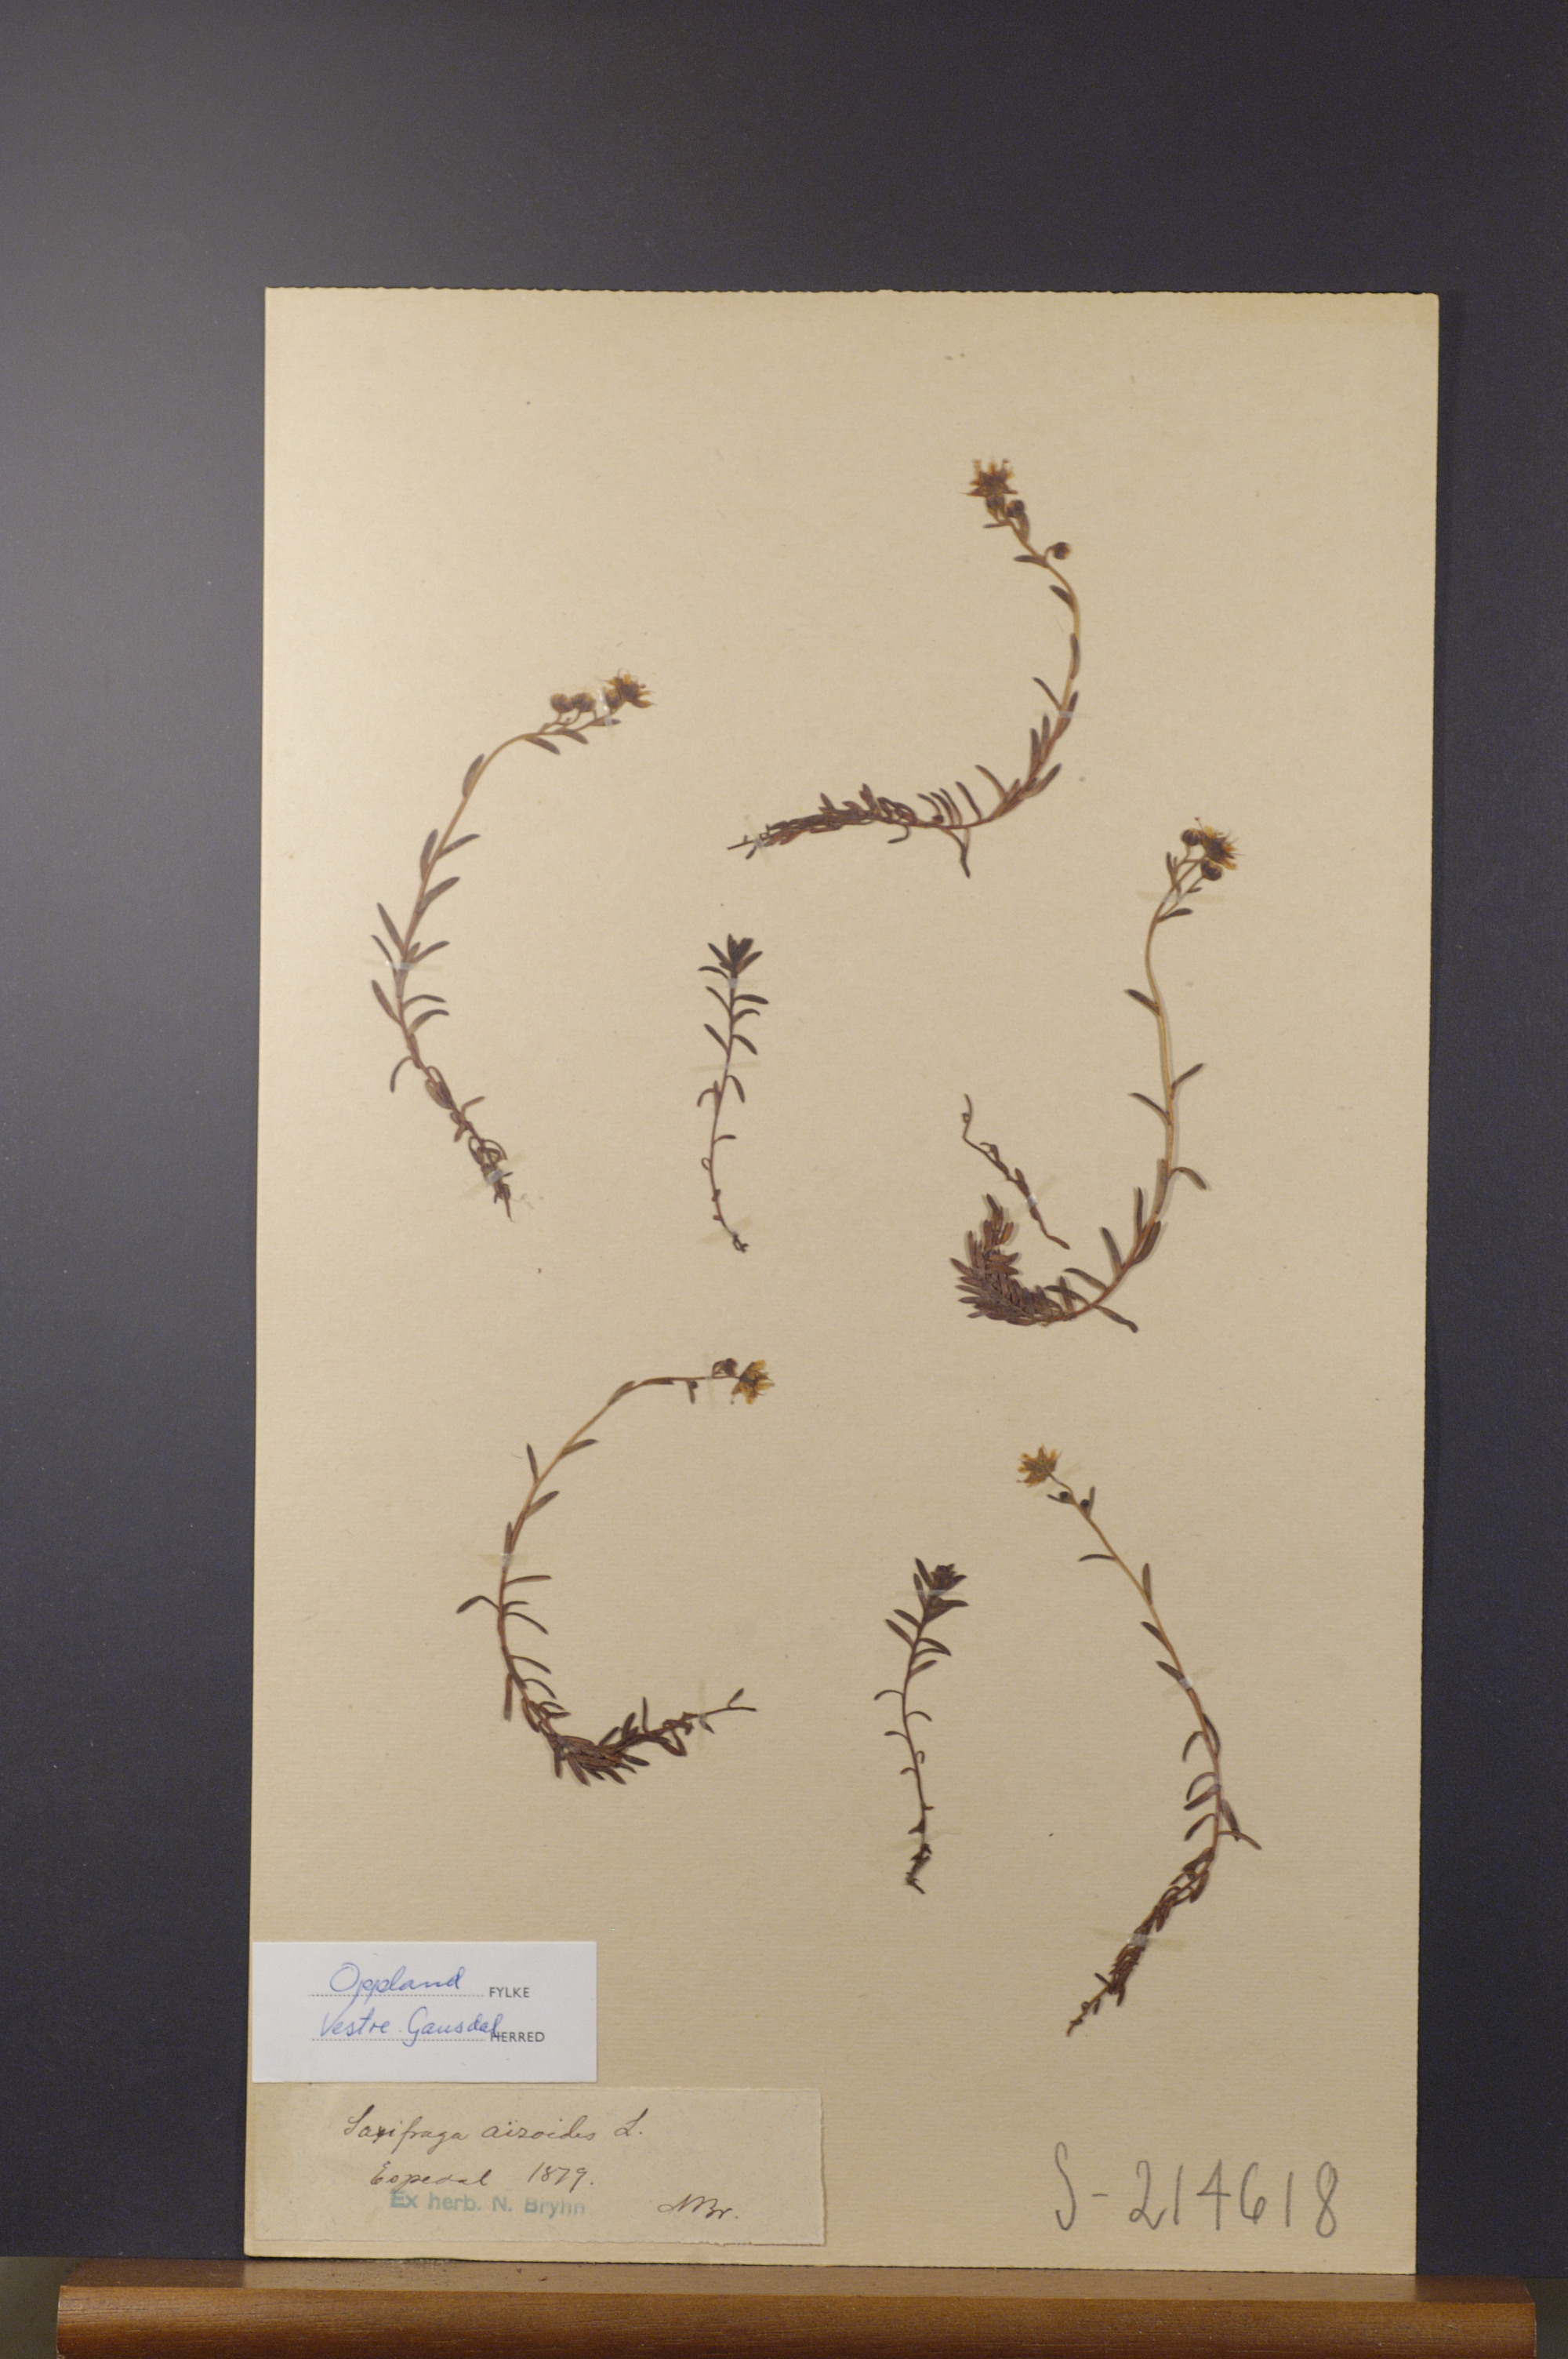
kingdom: Plantae
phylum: Tracheophyta
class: Magnoliopsida
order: Saxifragales
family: Saxifragaceae
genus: Saxifraga
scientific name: Saxifraga aizoides
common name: Yellow mountain saxifrage
